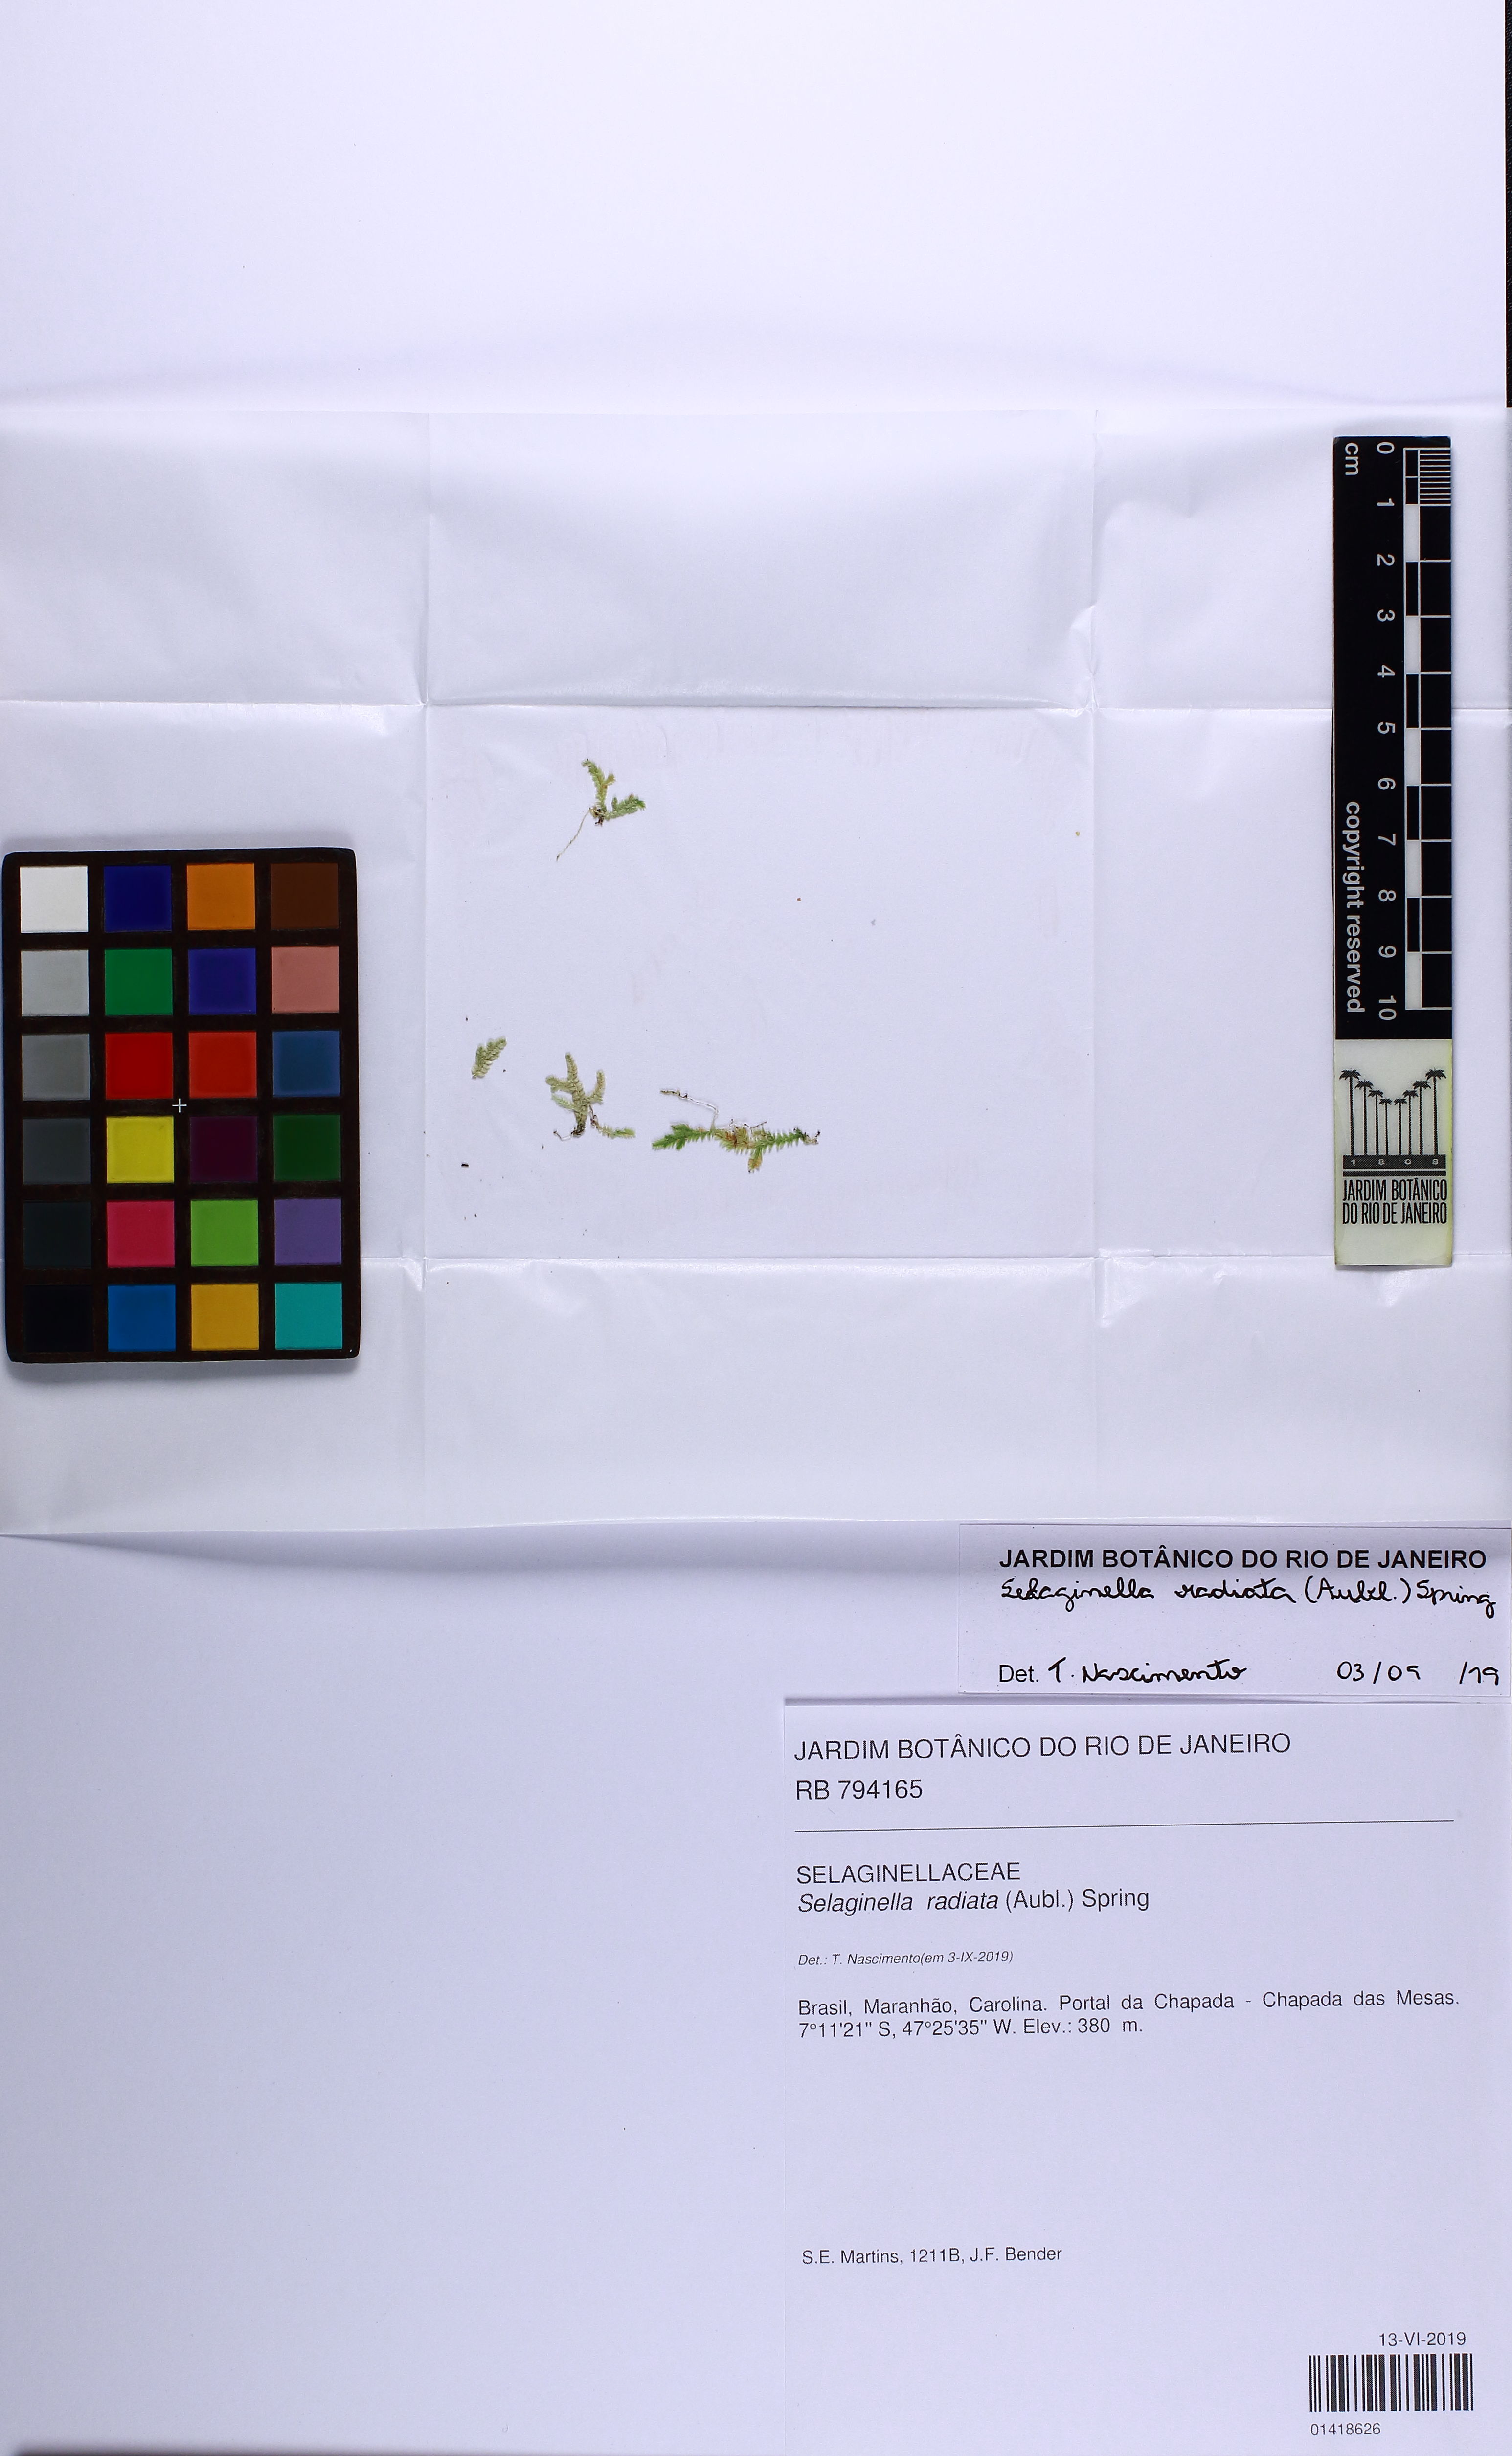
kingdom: Plantae
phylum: Tracheophyta
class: Lycopodiopsida
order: Selaginellales
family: Selaginellaceae
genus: Selaginella
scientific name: Selaginella radiata
